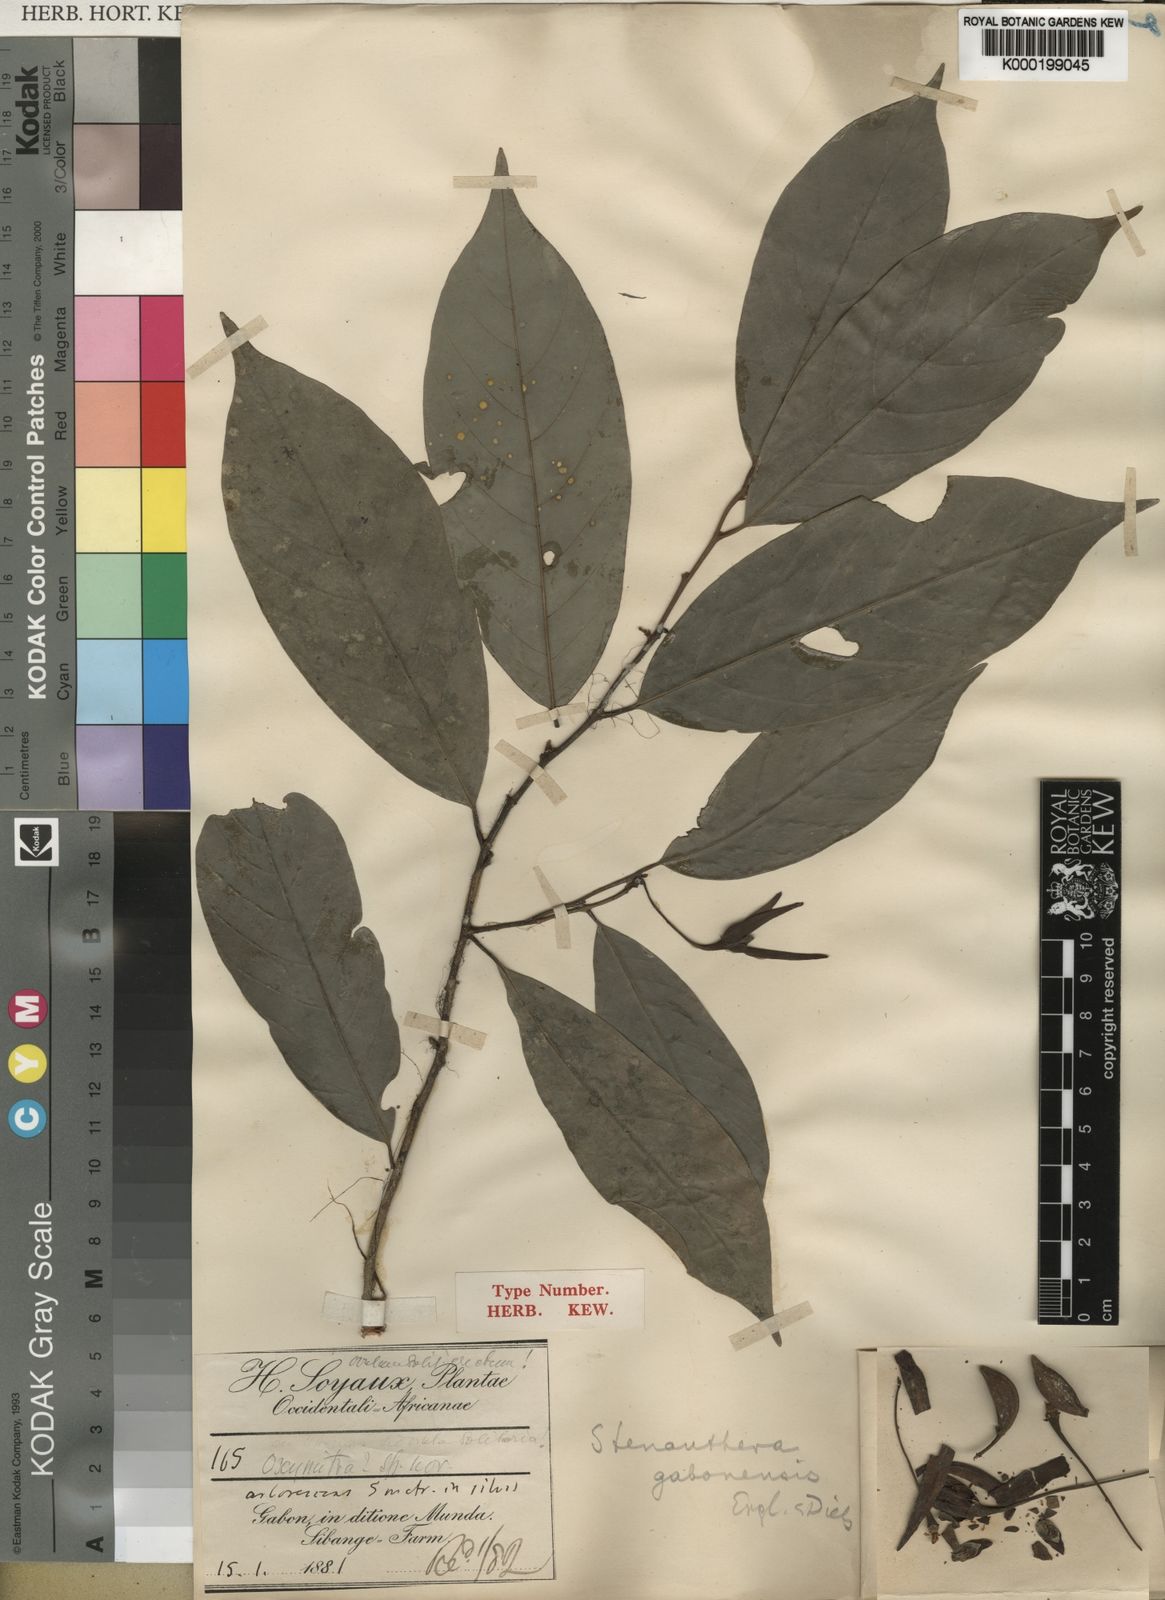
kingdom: Plantae
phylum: Tracheophyta
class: Magnoliopsida
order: Magnoliales
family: Annonaceae
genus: Neostenanthera
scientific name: Neostenanthera gabonensis
